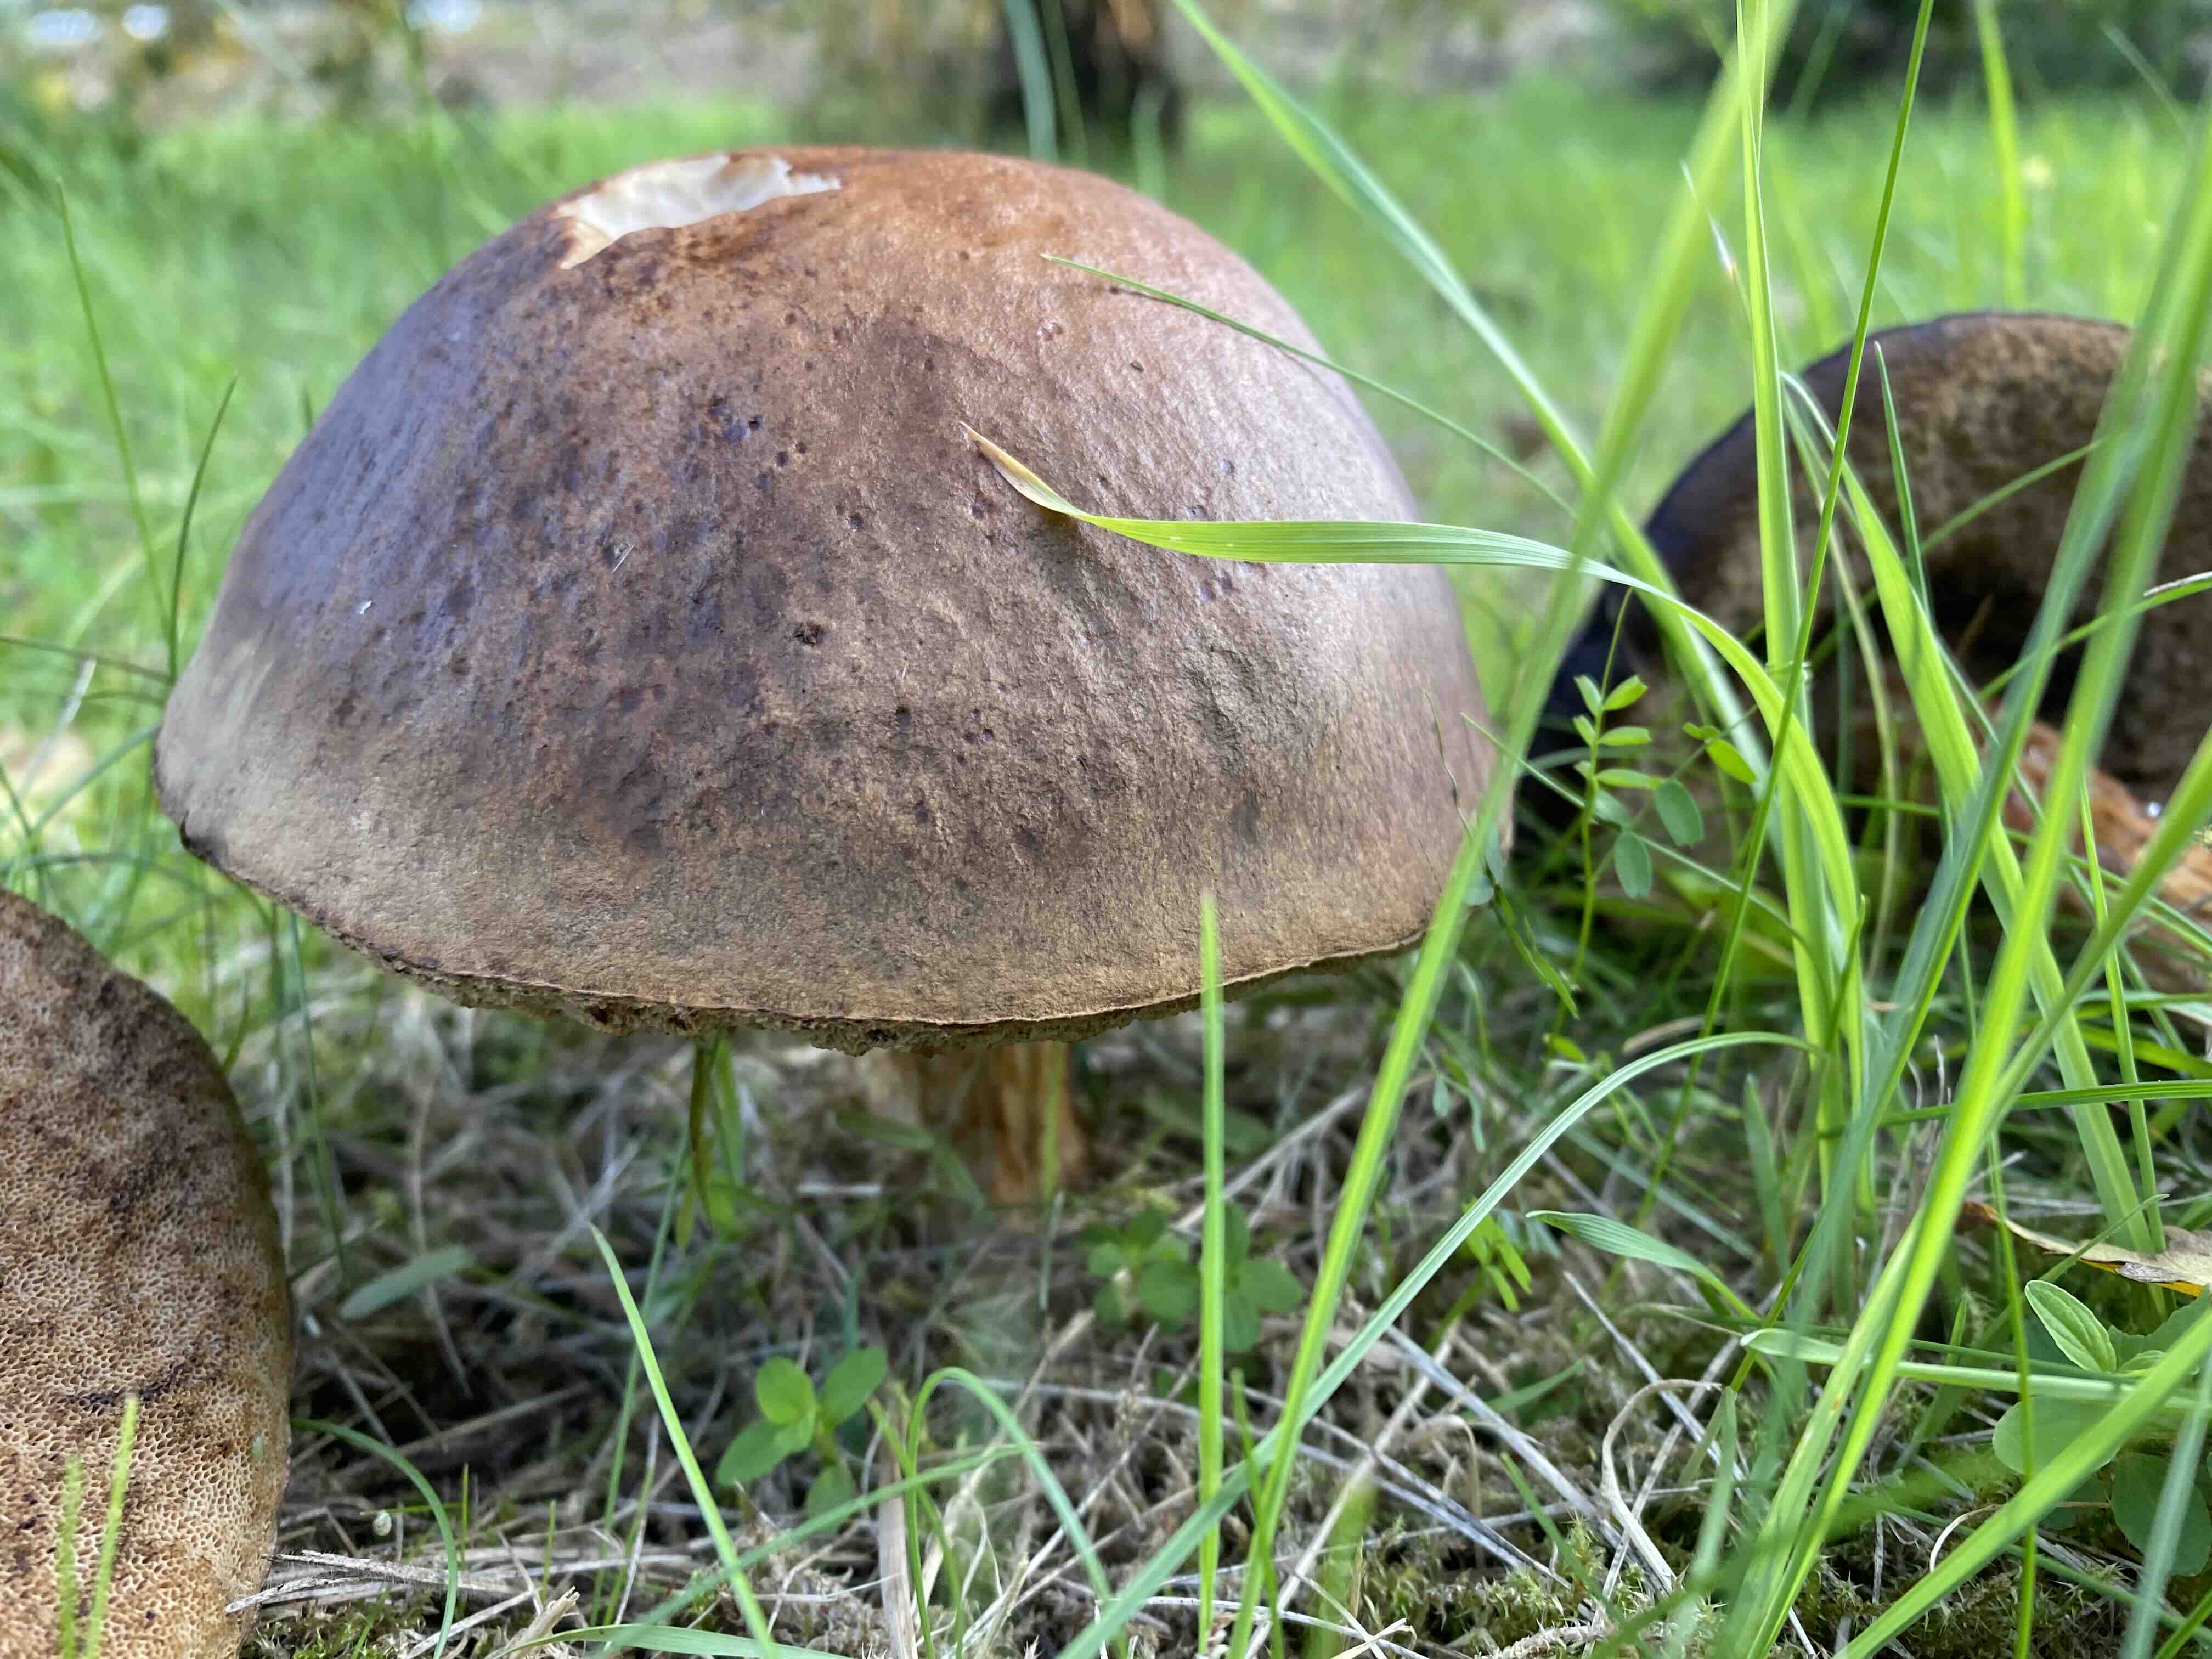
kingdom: Fungi
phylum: Basidiomycota
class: Agaricomycetes
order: Boletales
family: Boletaceae
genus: Leccinum
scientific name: Leccinum scabrum
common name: brun skælrørhat
